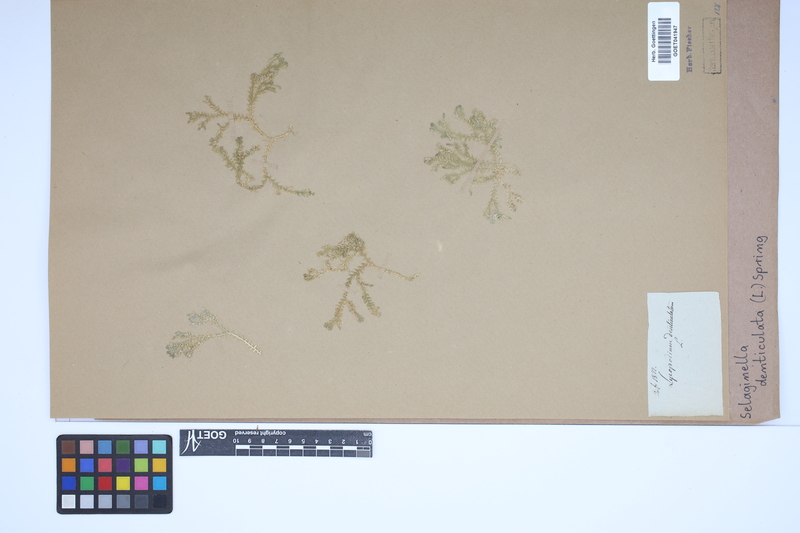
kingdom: Plantae
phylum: Tracheophyta
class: Lycopodiopsida
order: Selaginellales
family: Selaginellaceae
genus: Selaginella
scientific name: Selaginella denticulata
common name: Toothed-leaved clubmoss
